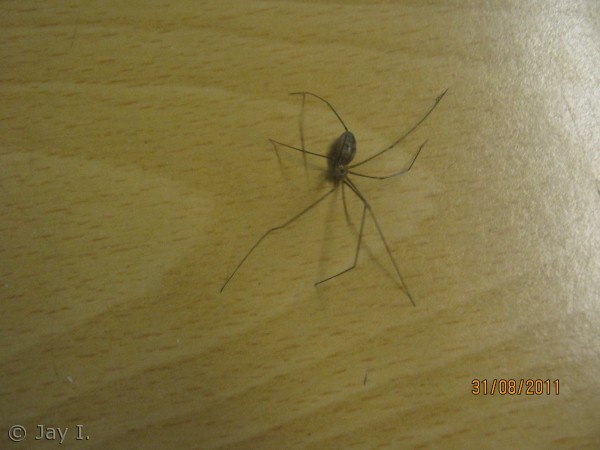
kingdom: Animalia
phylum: Arthropoda
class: Arachnida
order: Araneae
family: Pholcidae
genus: Pholcus
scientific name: Pholcus phalangioides
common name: Mejeredderkop
